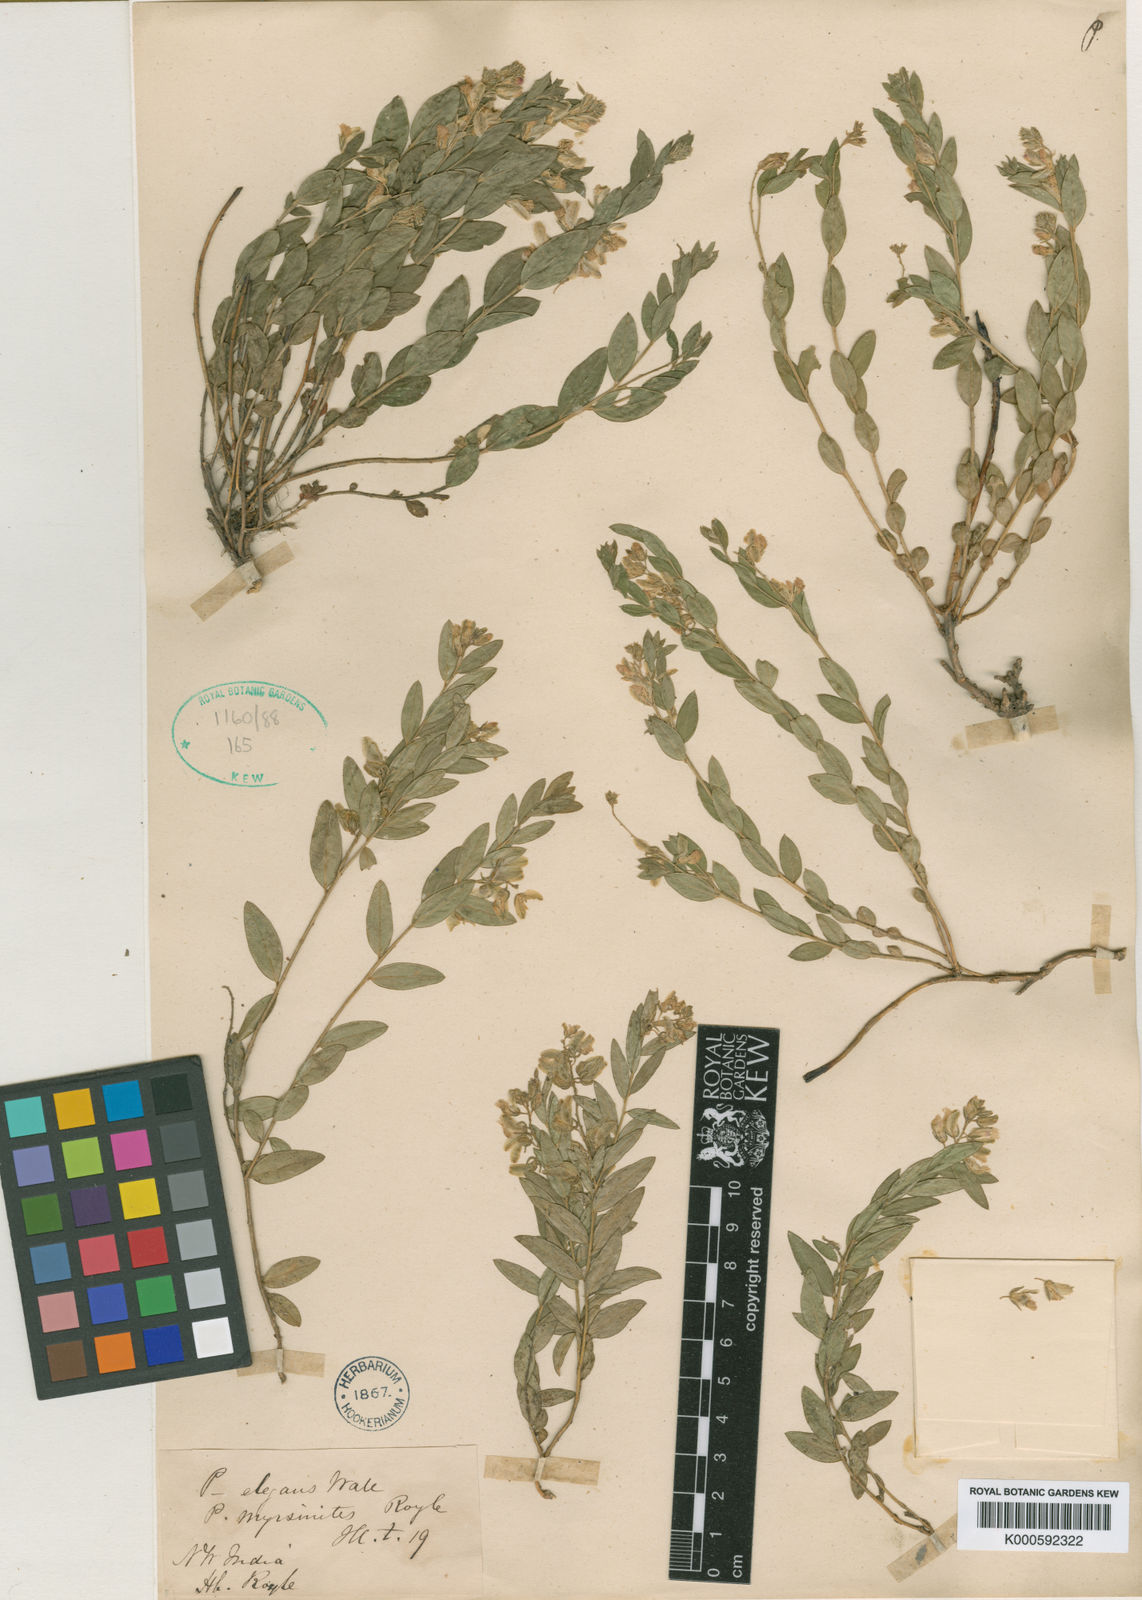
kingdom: Plantae
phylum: Tracheophyta
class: Magnoliopsida
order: Fabales
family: Polygalaceae
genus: Polygala
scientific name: Polygala sibirica
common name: Siberian polygala
